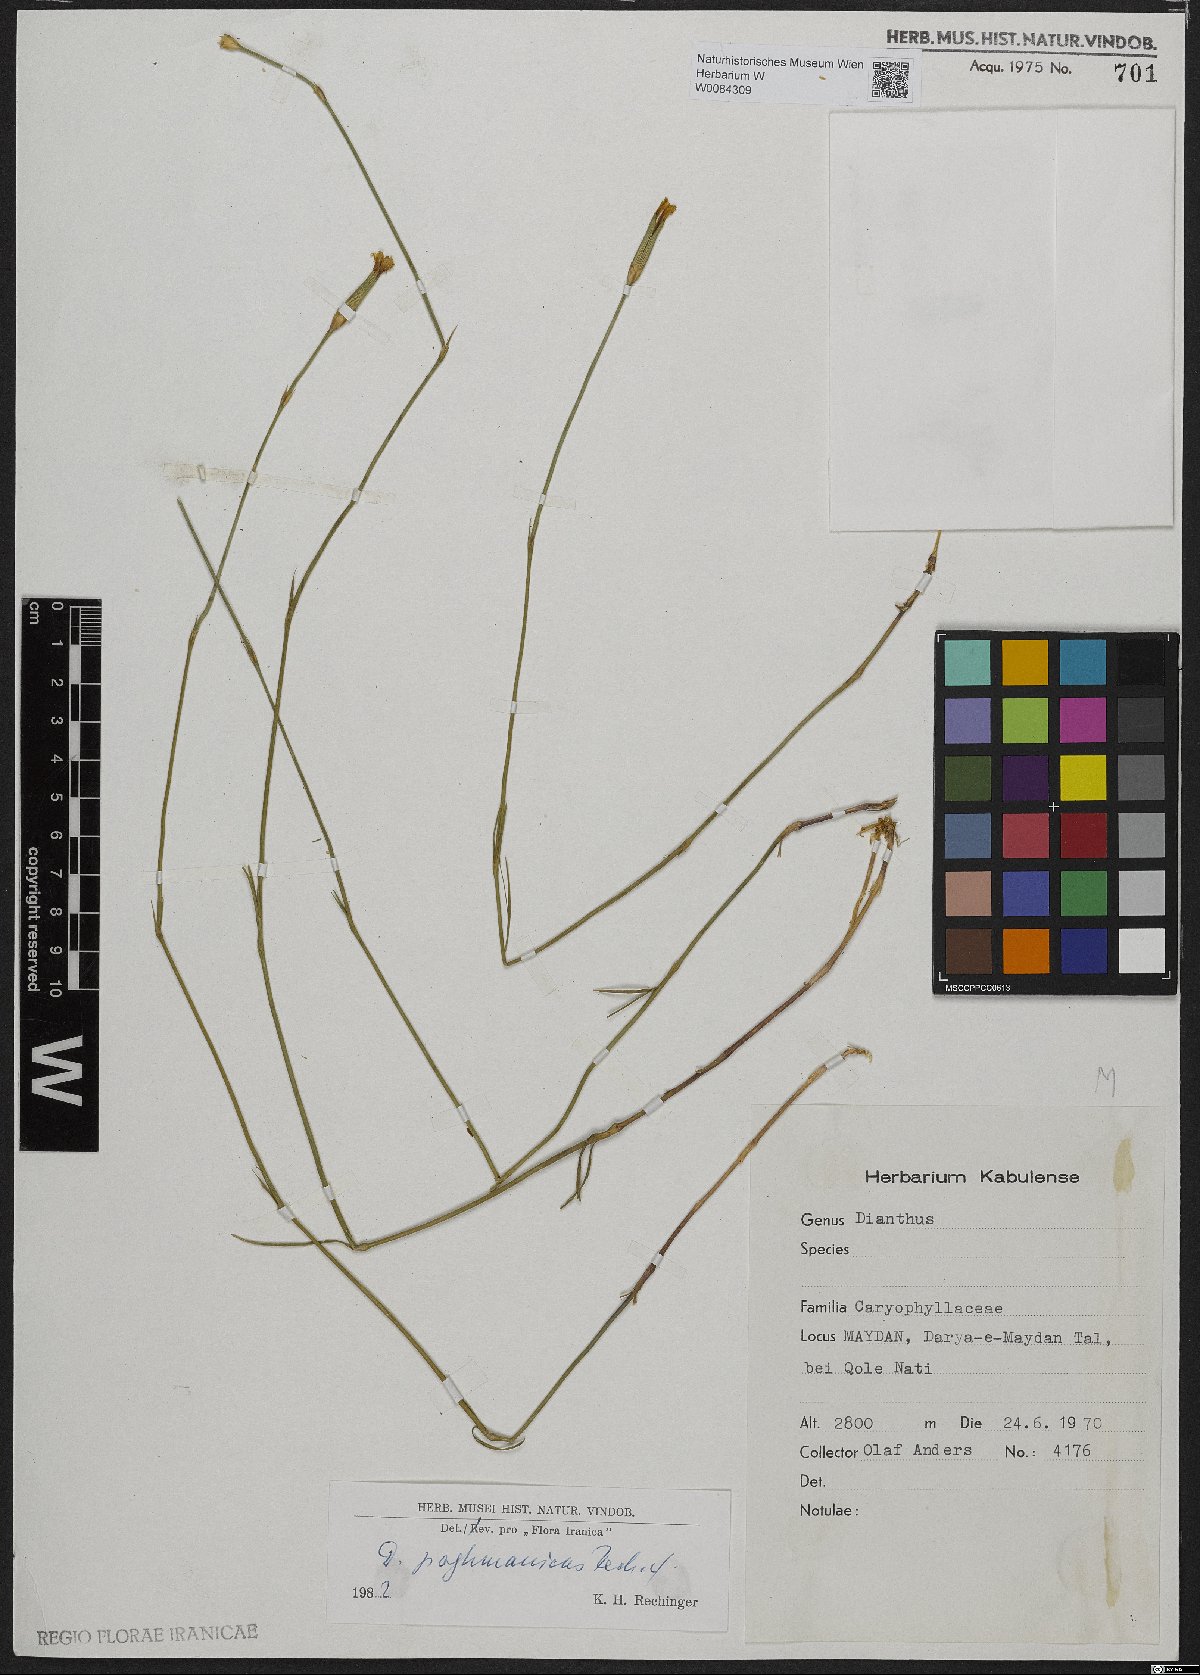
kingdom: Plantae
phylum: Tracheophyta
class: Magnoliopsida
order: Caryophyllales
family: Caryophyllaceae
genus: Dianthus
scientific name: Dianthus paghmanicus
